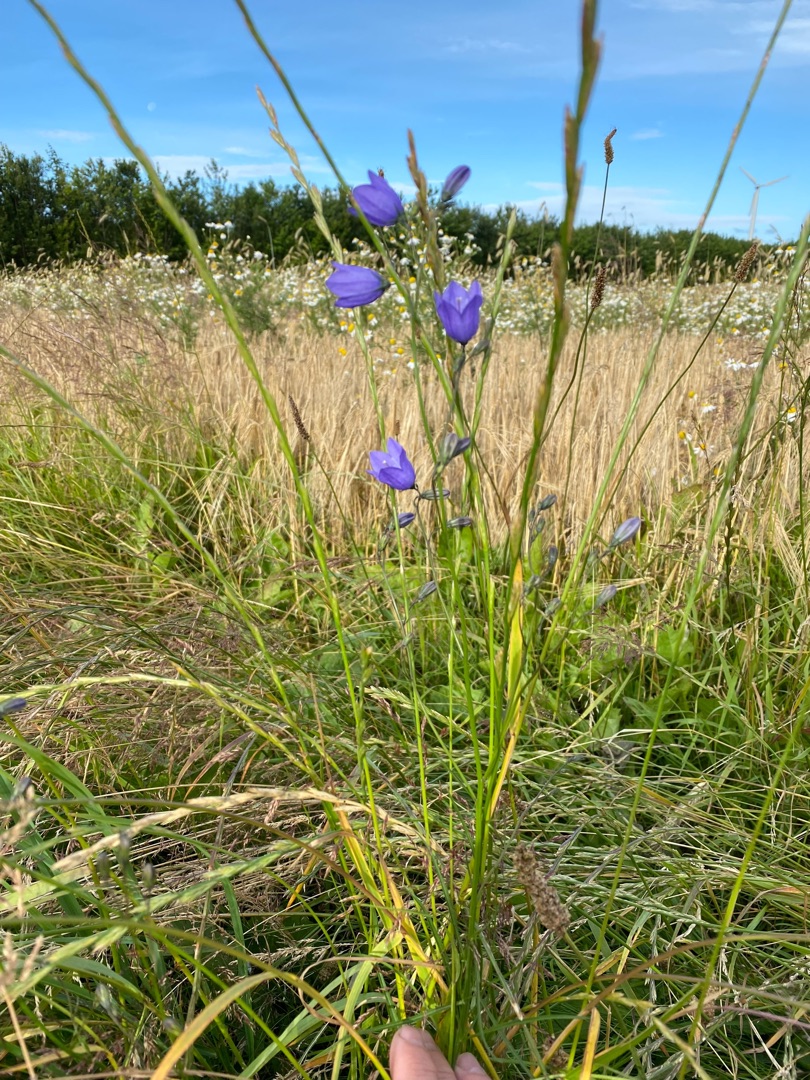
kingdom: Plantae
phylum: Tracheophyta
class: Magnoliopsida
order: Asterales
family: Campanulaceae
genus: Campanula
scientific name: Campanula rotundifolia
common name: Liden klokke
